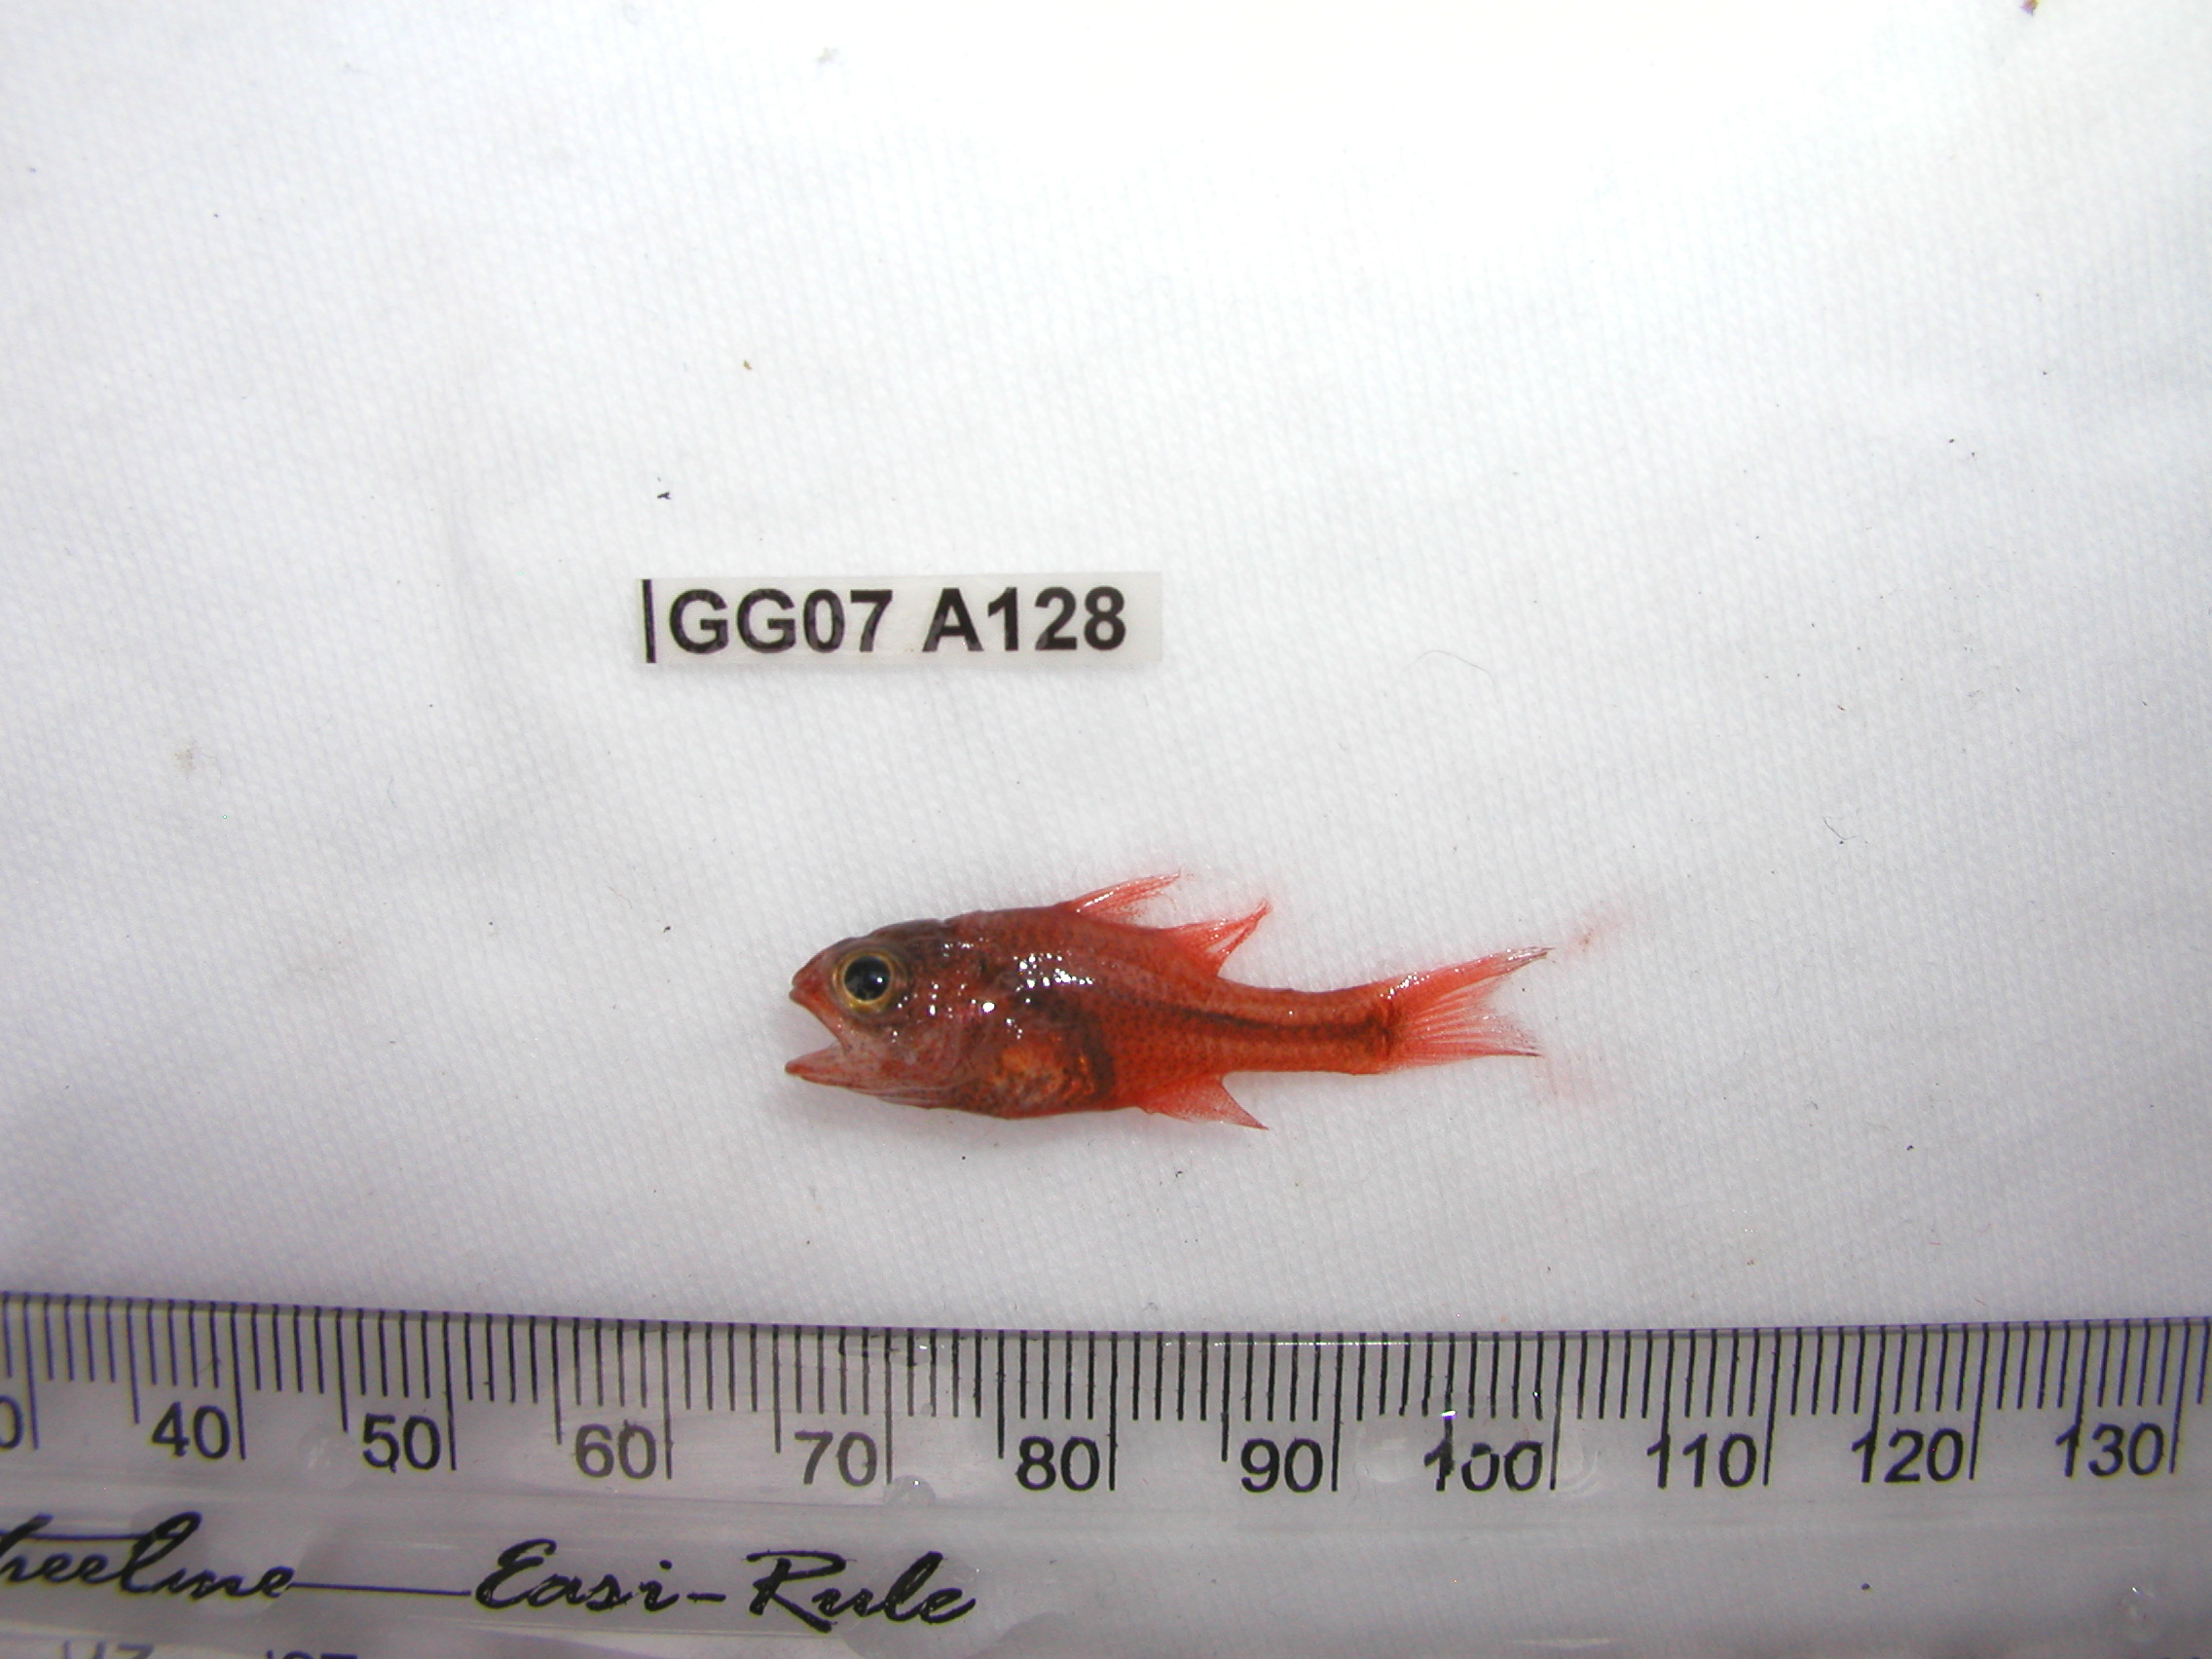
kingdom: Animalia
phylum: Chordata
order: Perciformes
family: Apogonidae
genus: Apogon
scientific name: Apogon semiornatus
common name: Threeband cardinalfish
